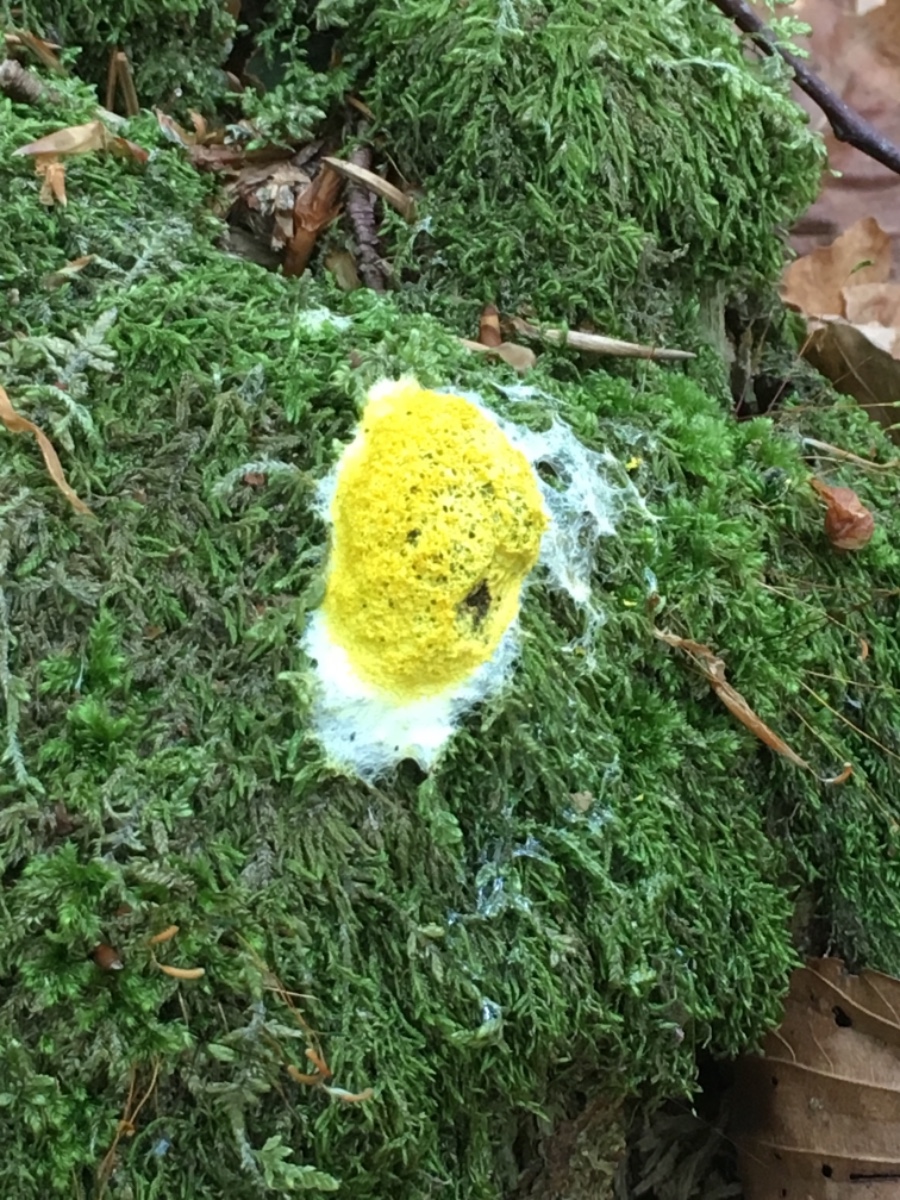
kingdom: Protozoa
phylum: Mycetozoa
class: Myxomycetes
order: Physarales
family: Physaraceae
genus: Fuligo
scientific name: Fuligo septica
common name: gul troldsmør
